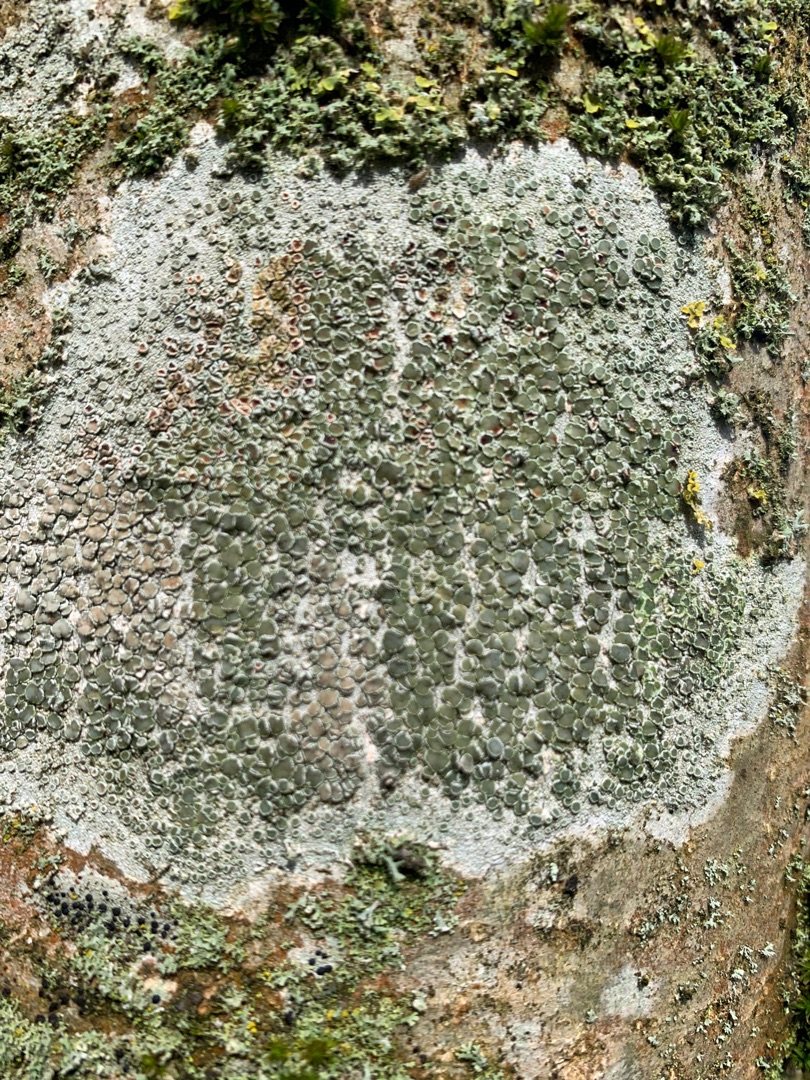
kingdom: Fungi
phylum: Ascomycota
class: Lecanoromycetes
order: Lecanorales
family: Lecanoraceae
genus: Lecanora
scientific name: Lecanora chlarotera
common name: Brun kantskivelav
